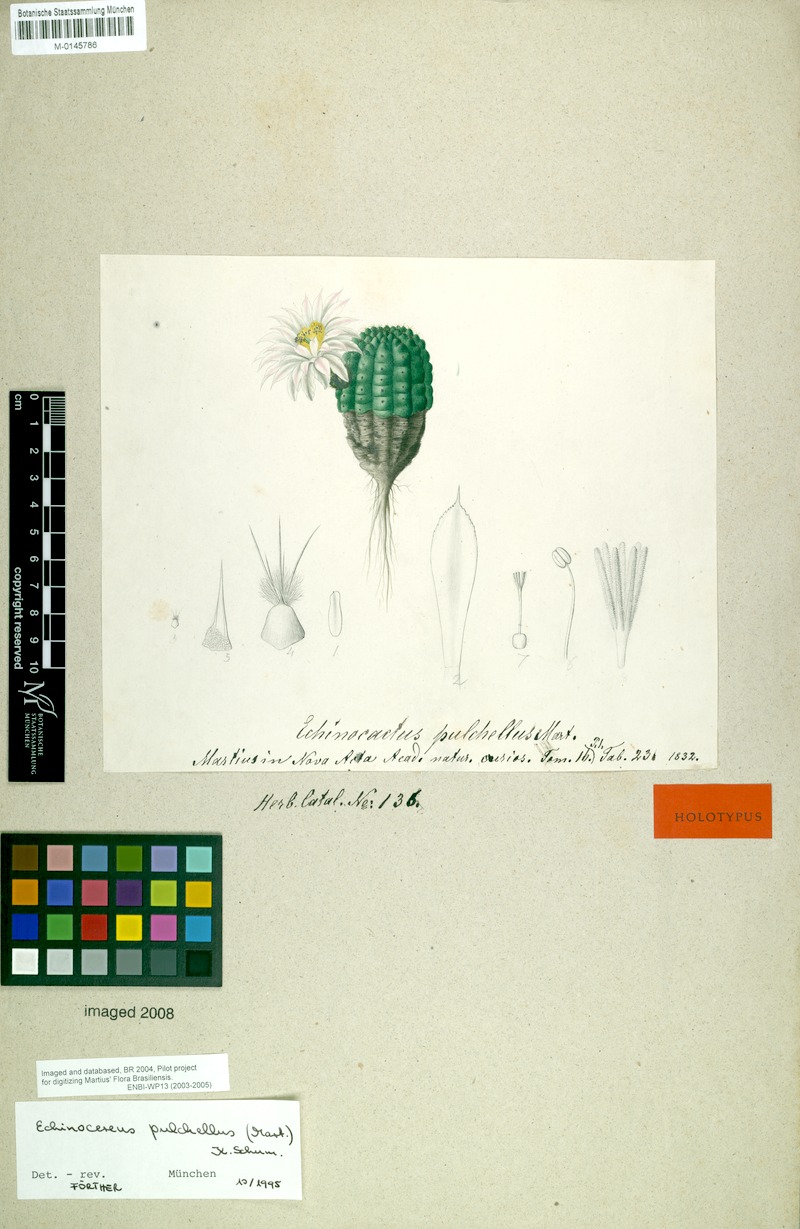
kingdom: Plantae
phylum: Tracheophyta
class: Magnoliopsida
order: Caryophyllales
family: Cactaceae
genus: Echinocereus
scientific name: Echinocereus pulchellus
